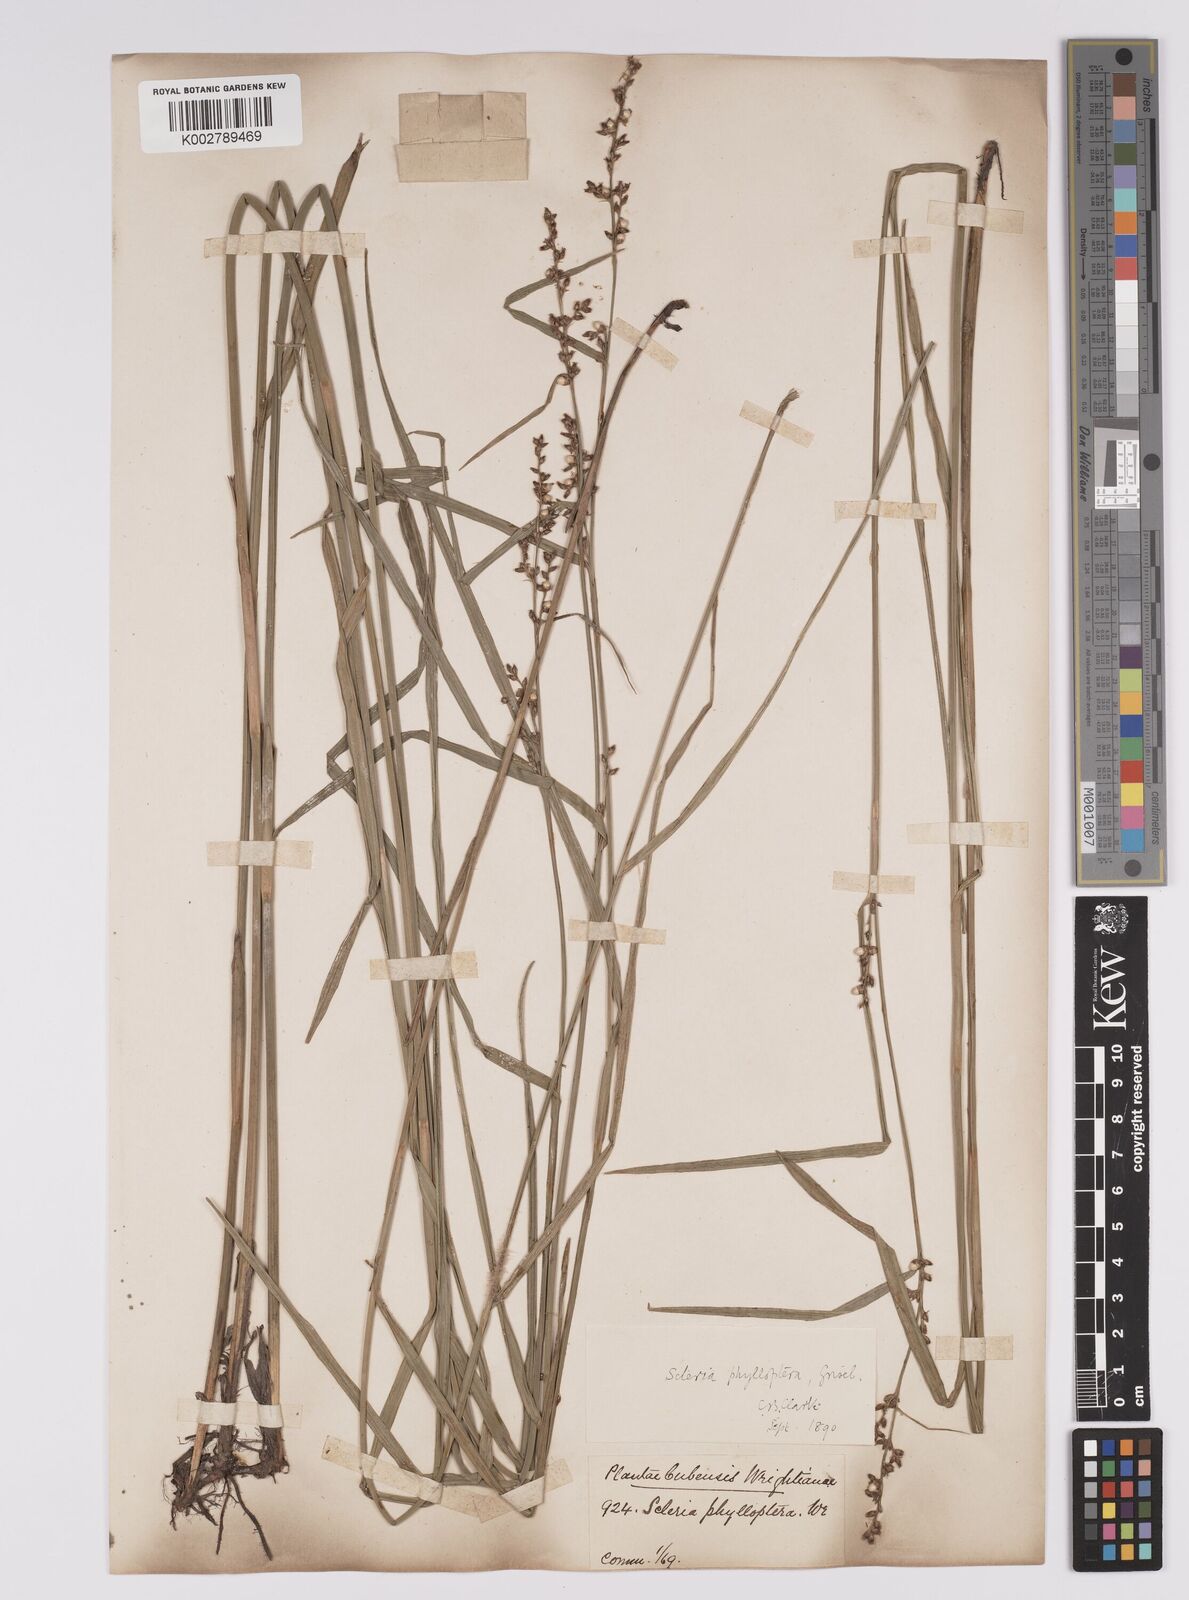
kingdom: Plantae
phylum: Tracheophyta
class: Liliopsida
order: Poales
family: Cyperaceae
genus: Scleria
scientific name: Scleria testacea
